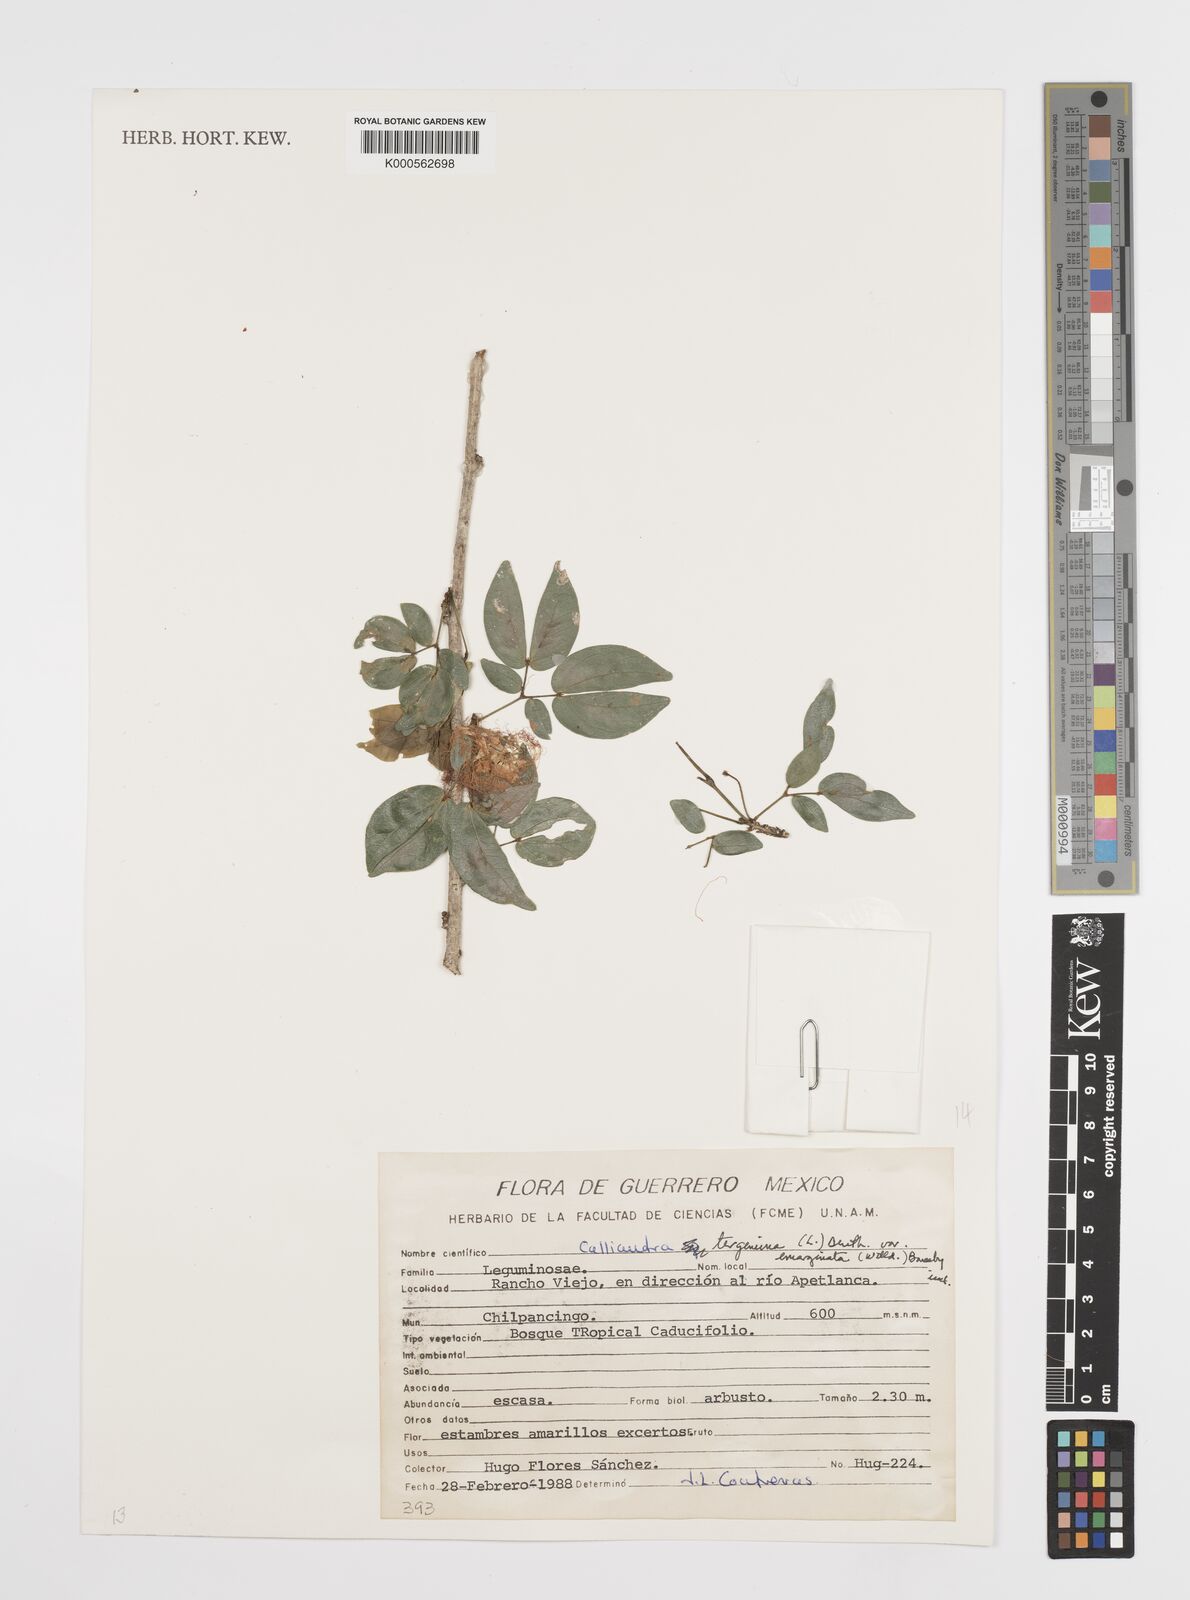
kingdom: Plantae
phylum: Tracheophyta
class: Magnoliopsida
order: Fabales
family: Fabaceae
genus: Calliandra
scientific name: Calliandra tergemina
